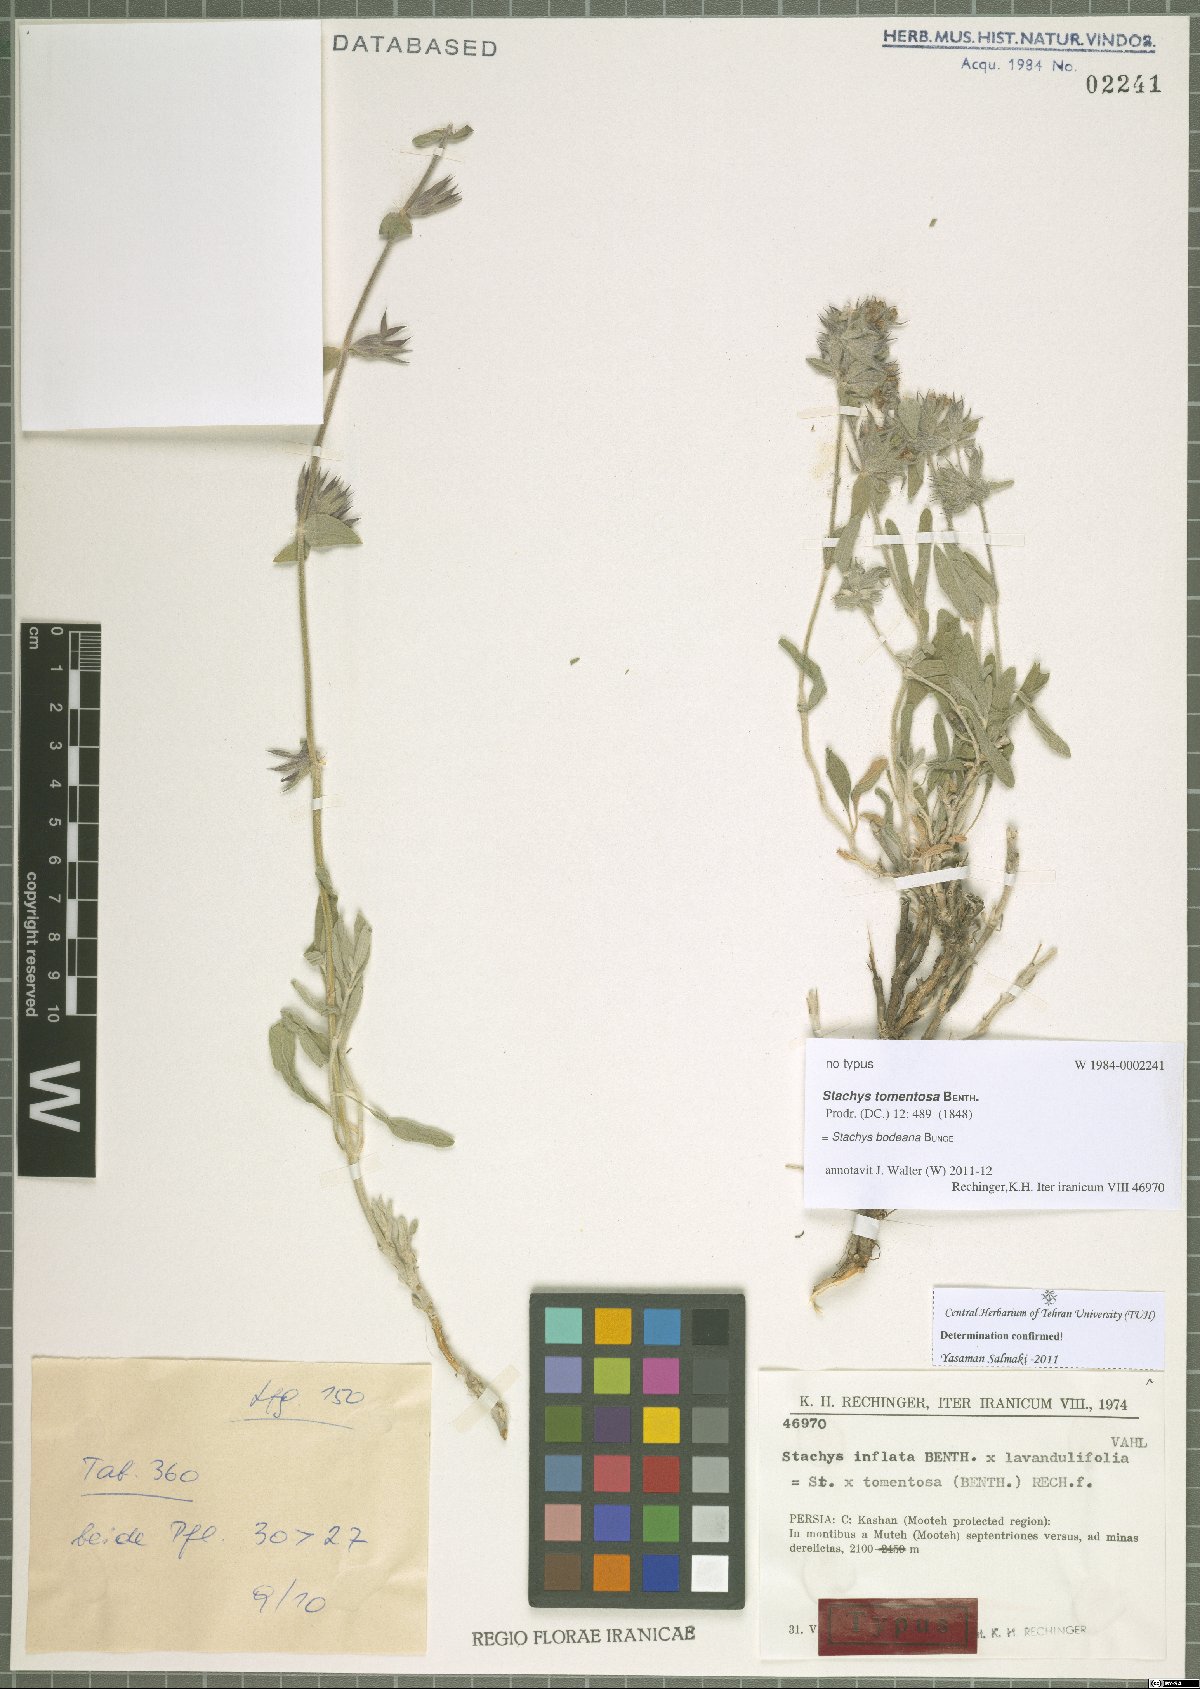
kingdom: Plantae
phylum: Tracheophyta
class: Magnoliopsida
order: Lamiales
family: Lamiaceae
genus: Stachys
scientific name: Stachys bodeana
